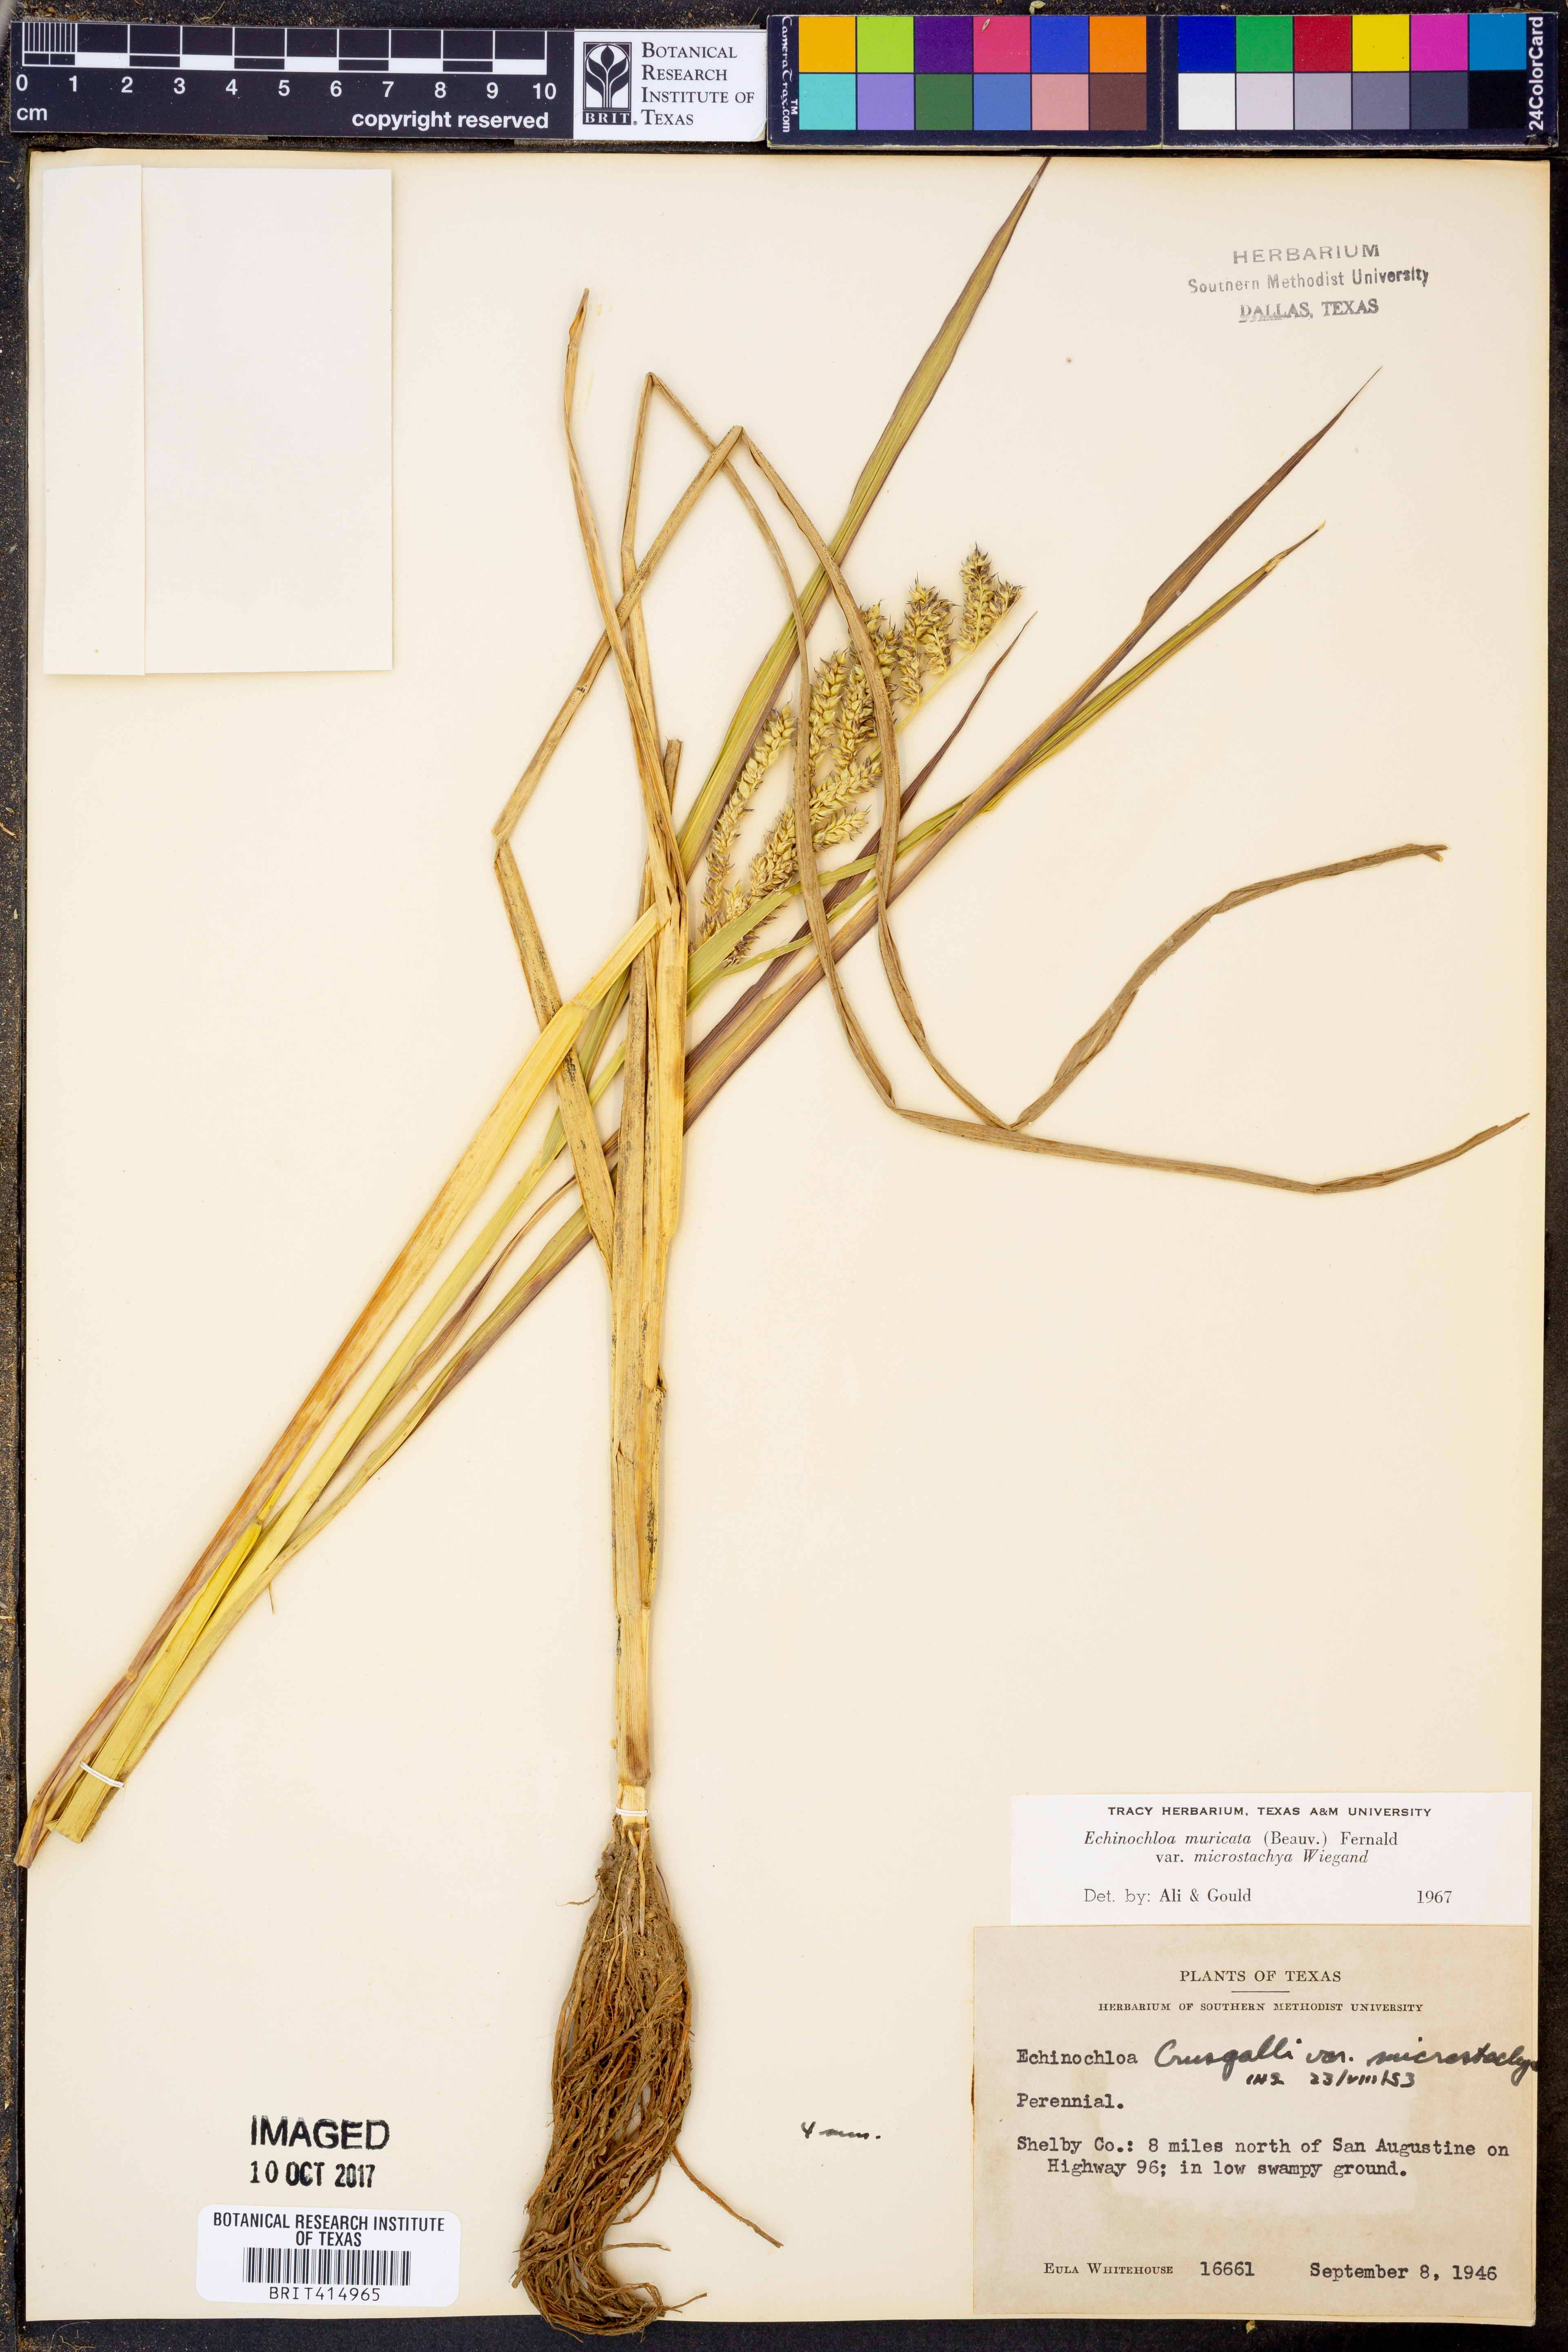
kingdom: Plantae
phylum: Tracheophyta
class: Liliopsida
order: Poales
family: Poaceae
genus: Echinochloa
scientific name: Echinochloa muricata
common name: American barnyard grass
